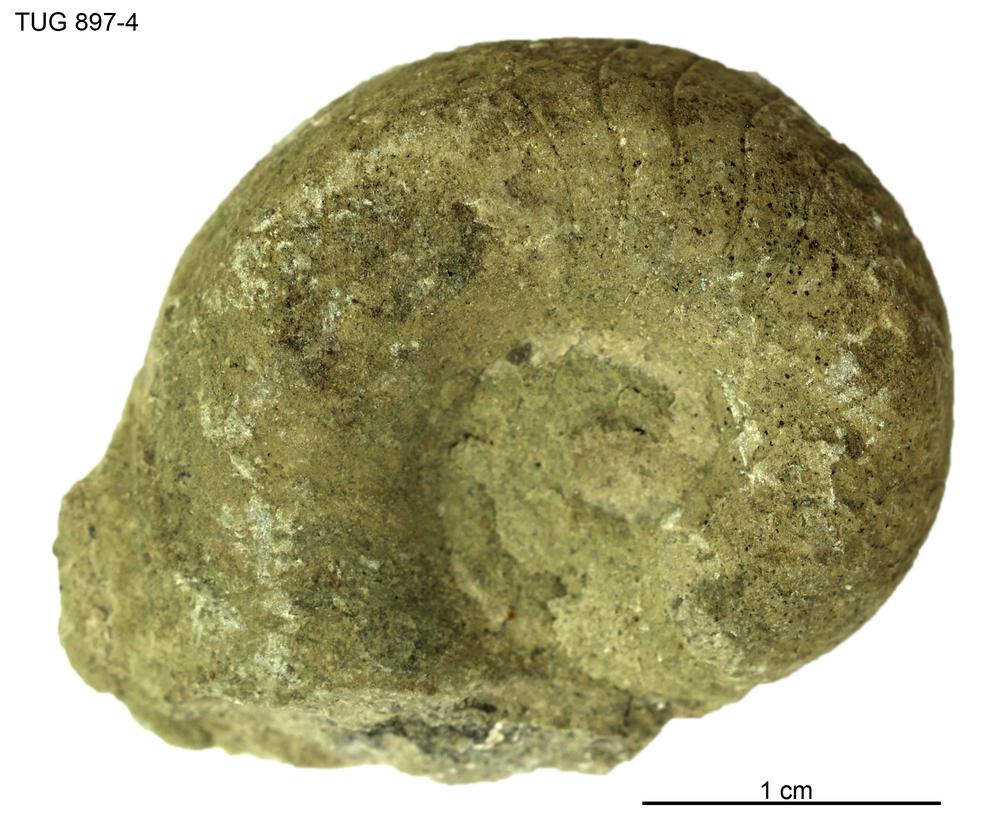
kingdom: Animalia
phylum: Mollusca
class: Cephalopoda
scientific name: Cephalopoda
